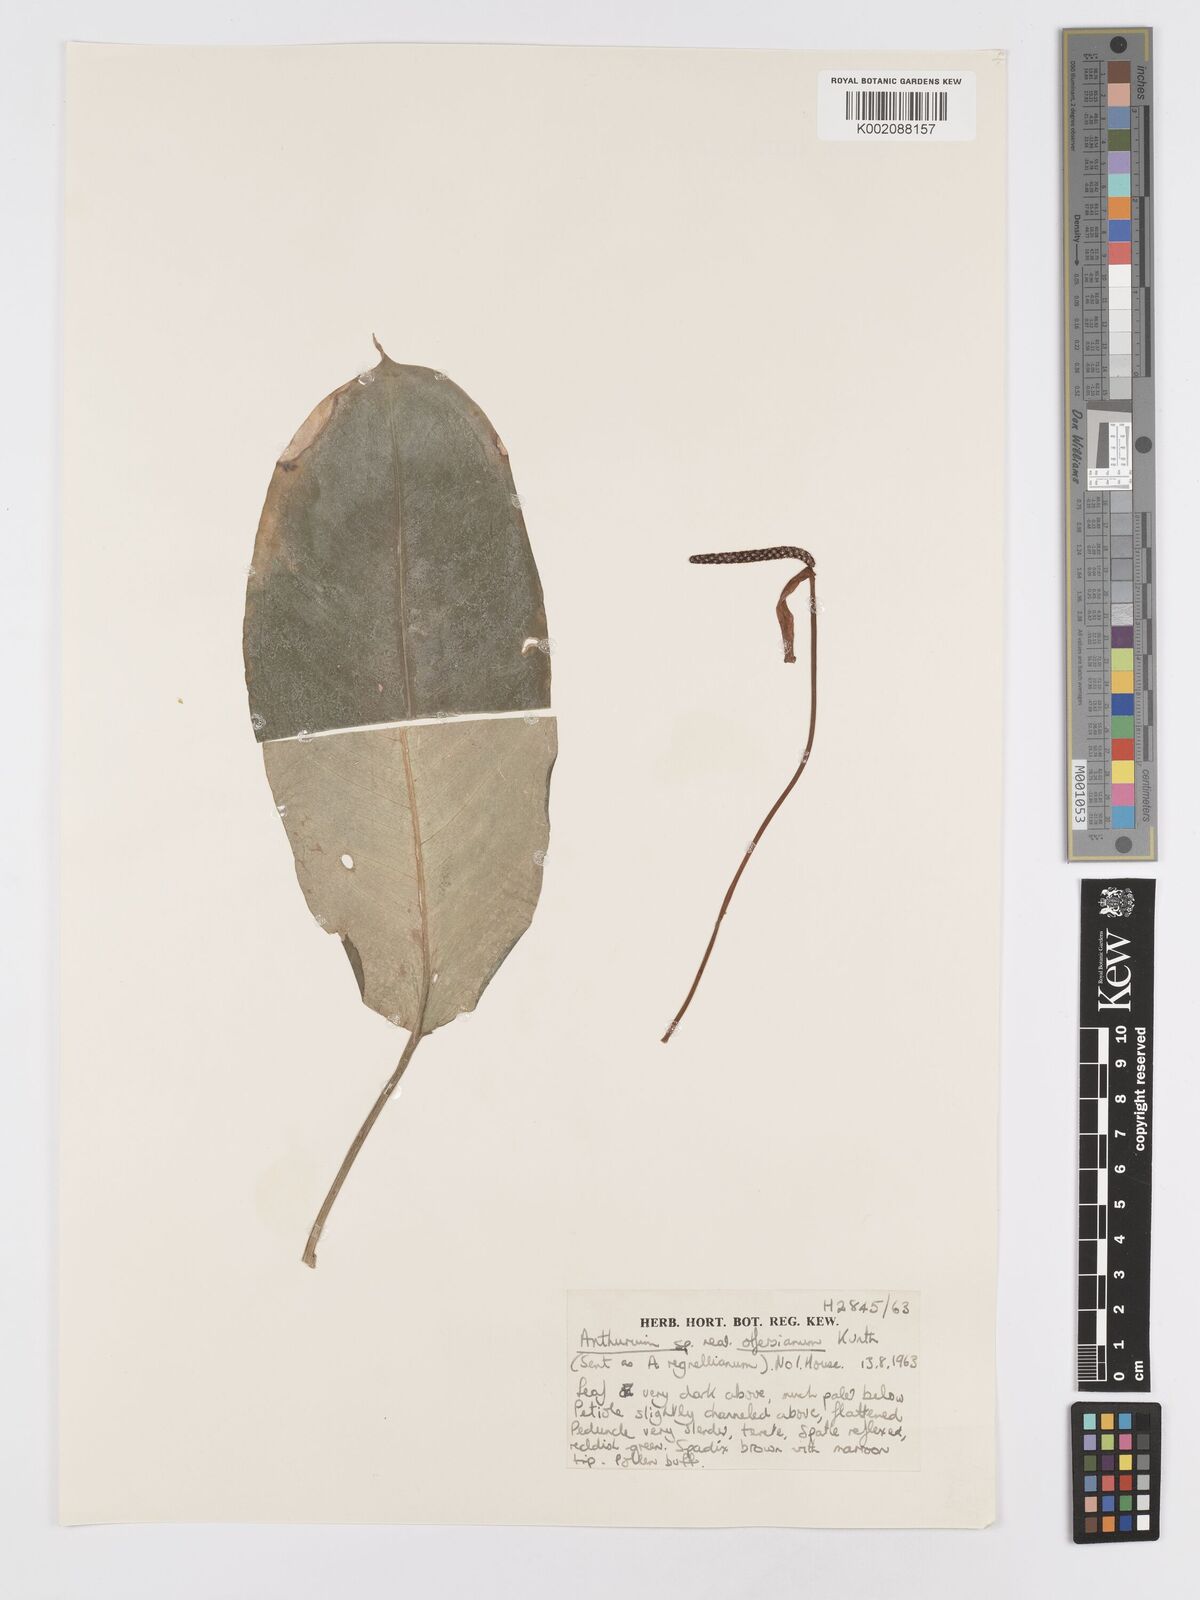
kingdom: Plantae
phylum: Tracheophyta
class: Liliopsida
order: Alismatales
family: Araceae
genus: Anthurium
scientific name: Anthurium
